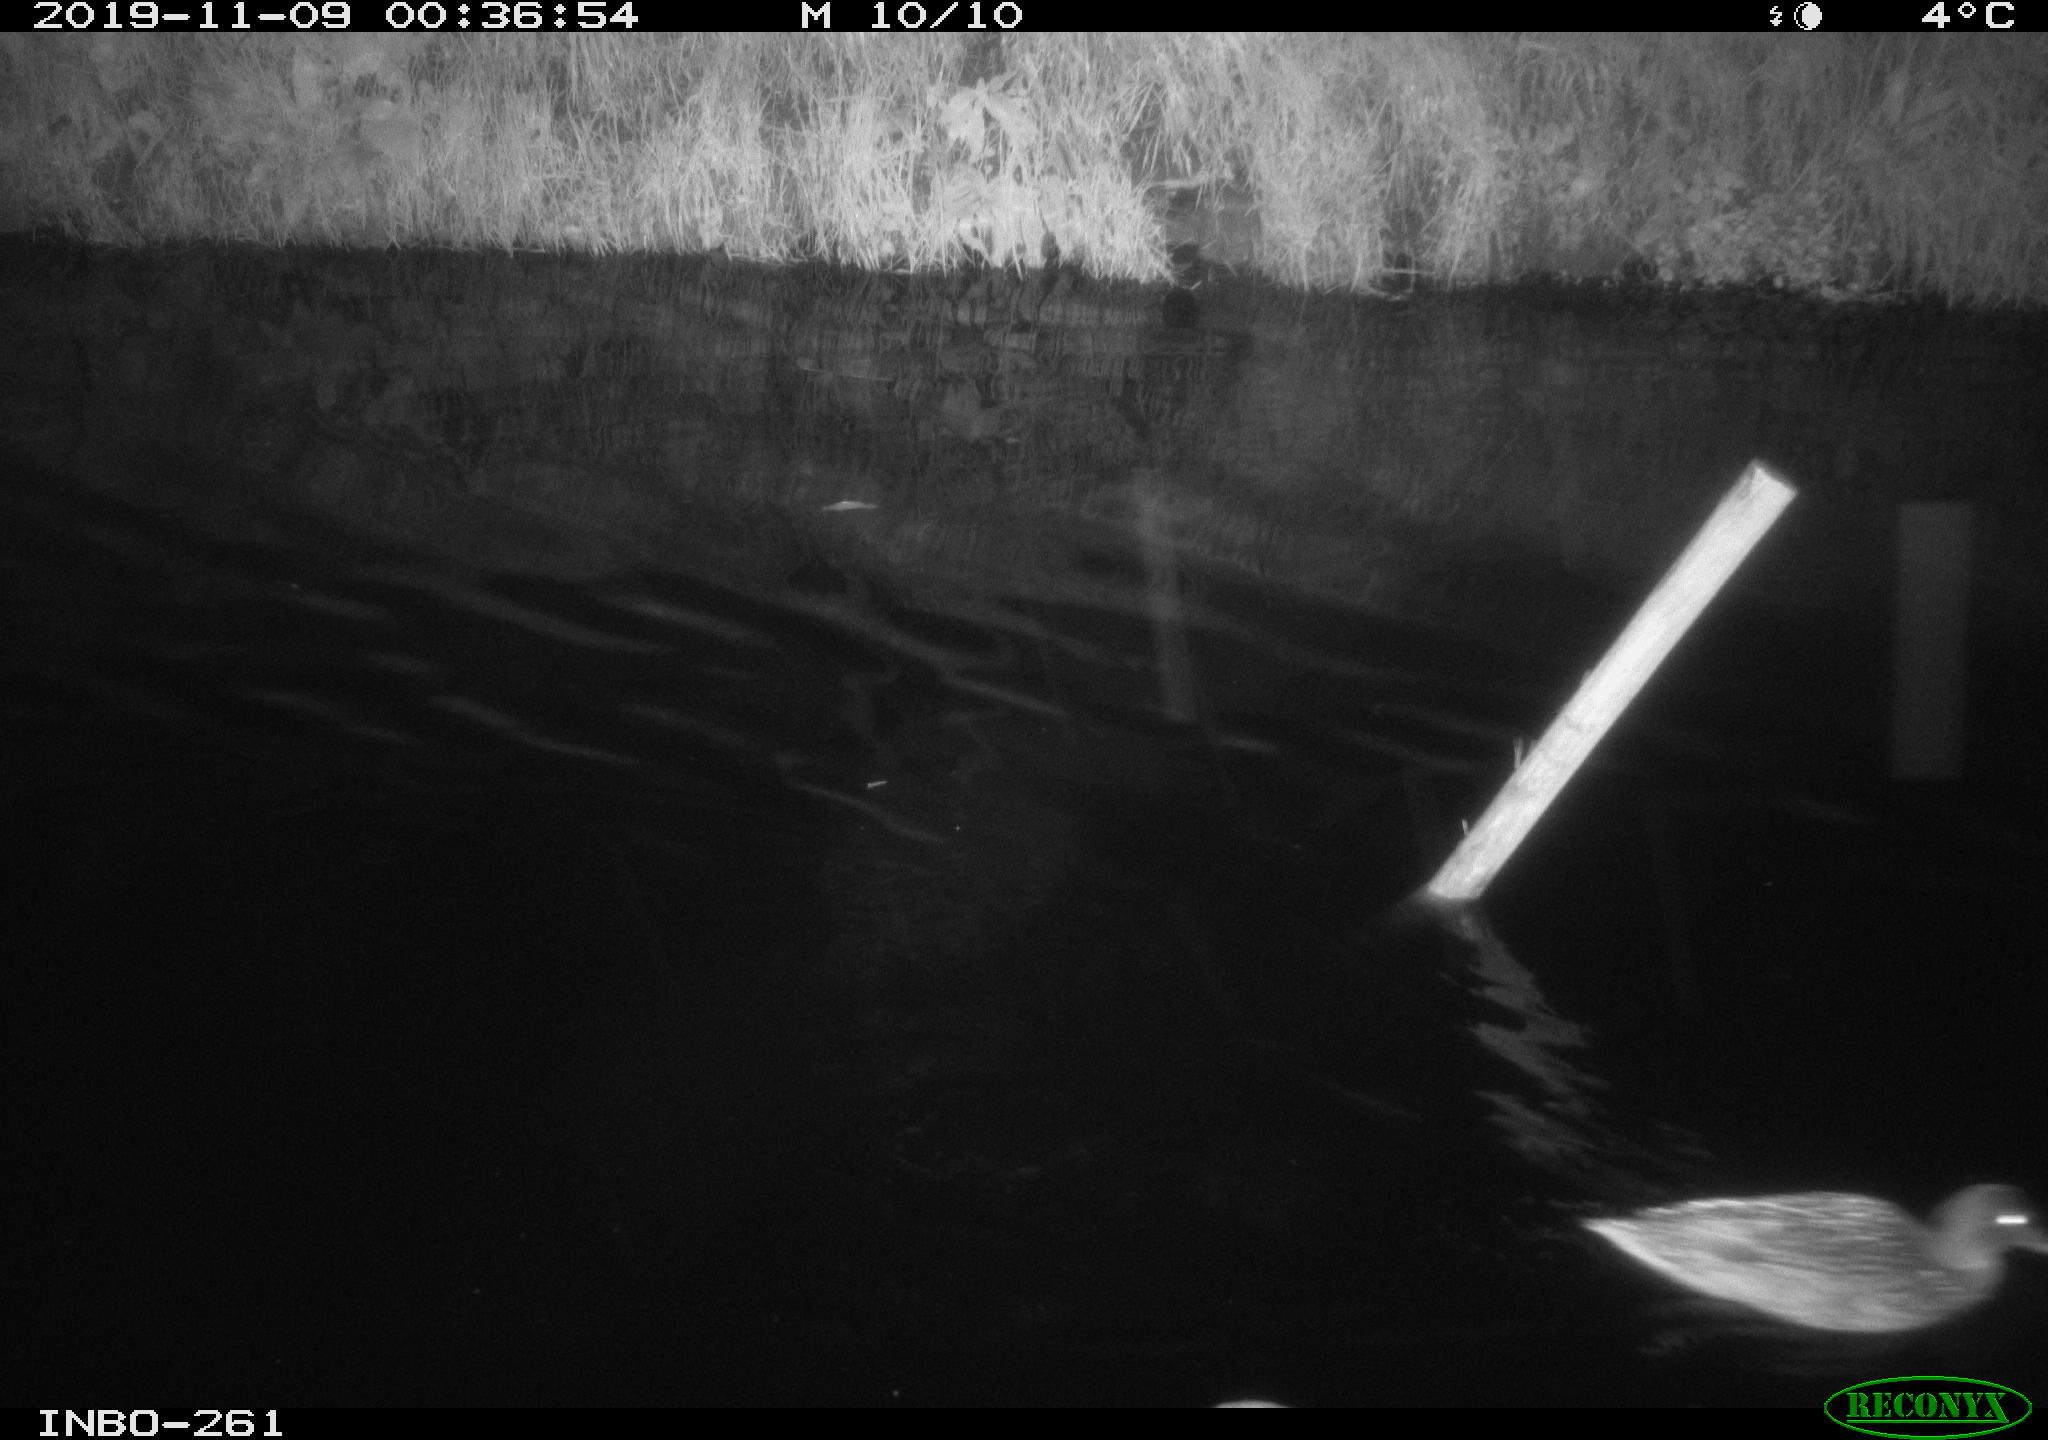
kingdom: Animalia
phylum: Chordata
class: Aves
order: Anseriformes
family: Anatidae
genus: Anas
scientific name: Anas platyrhynchos
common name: Mallard
